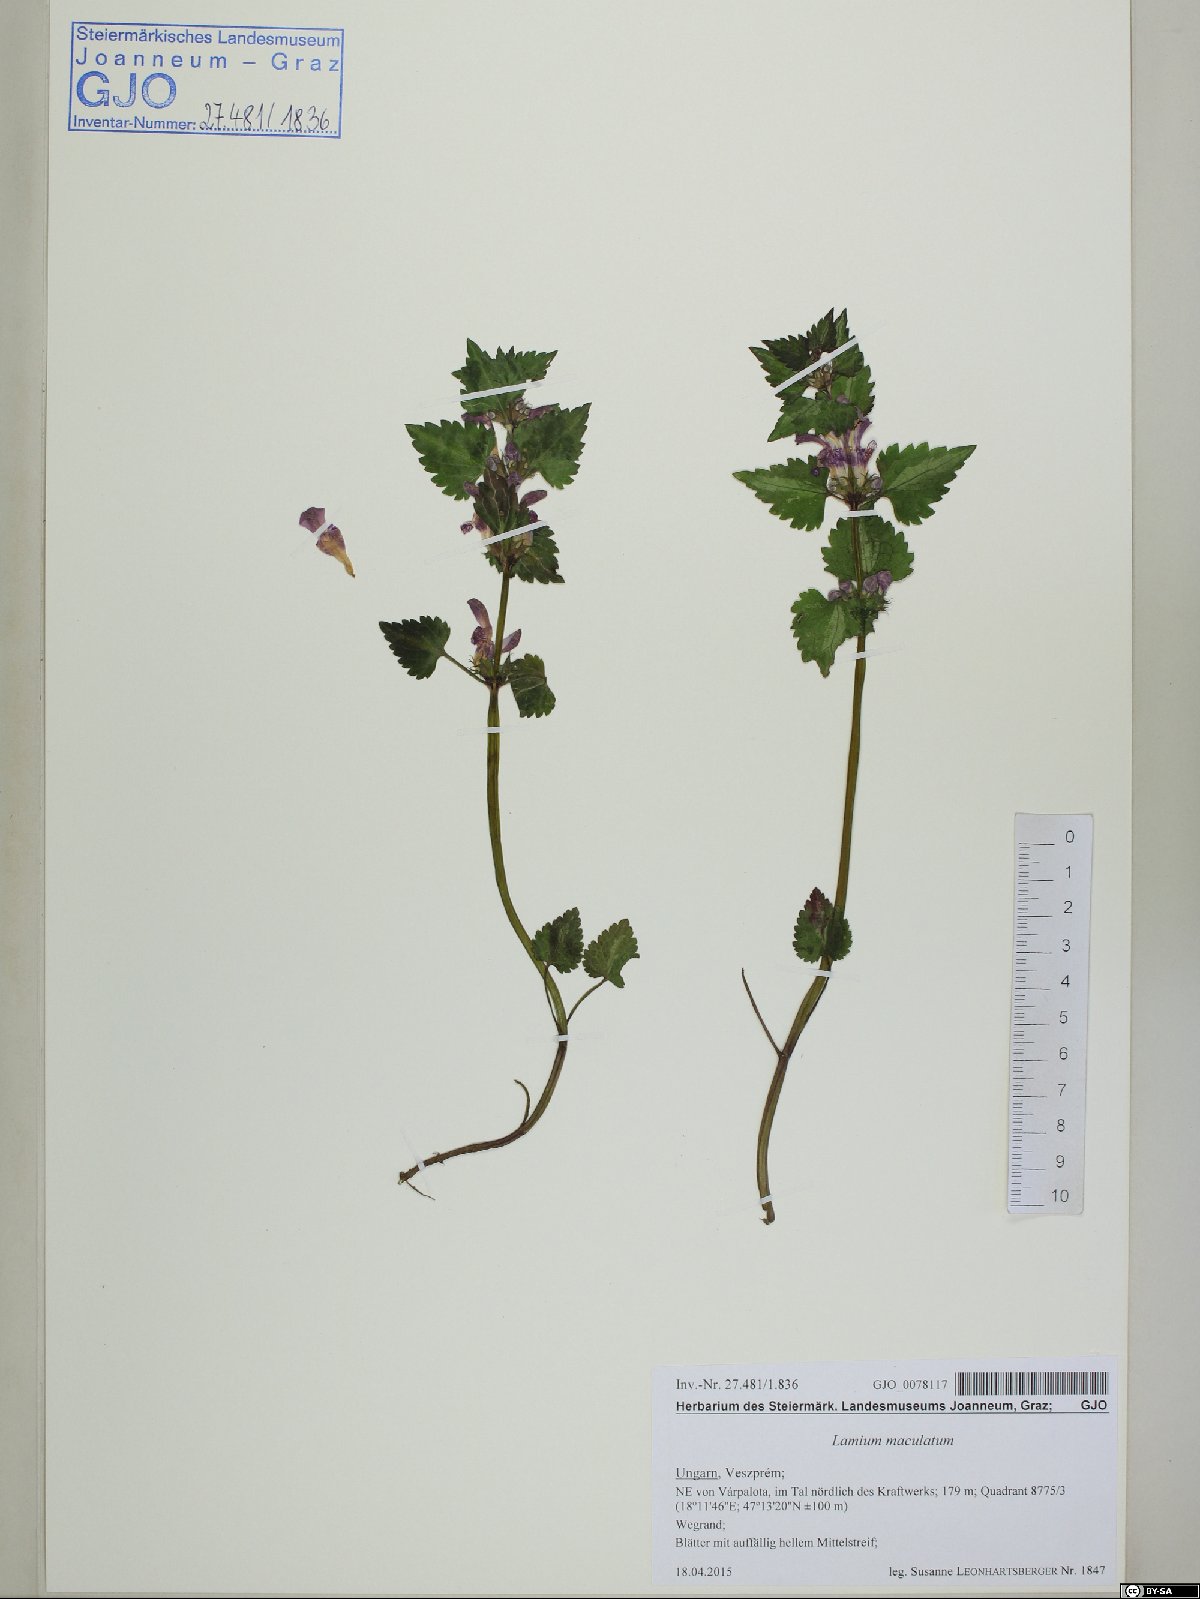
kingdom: Plantae
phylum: Tracheophyta
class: Magnoliopsida
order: Lamiales
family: Lamiaceae
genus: Lamium
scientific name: Lamium maculatum
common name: Spotted dead-nettle
